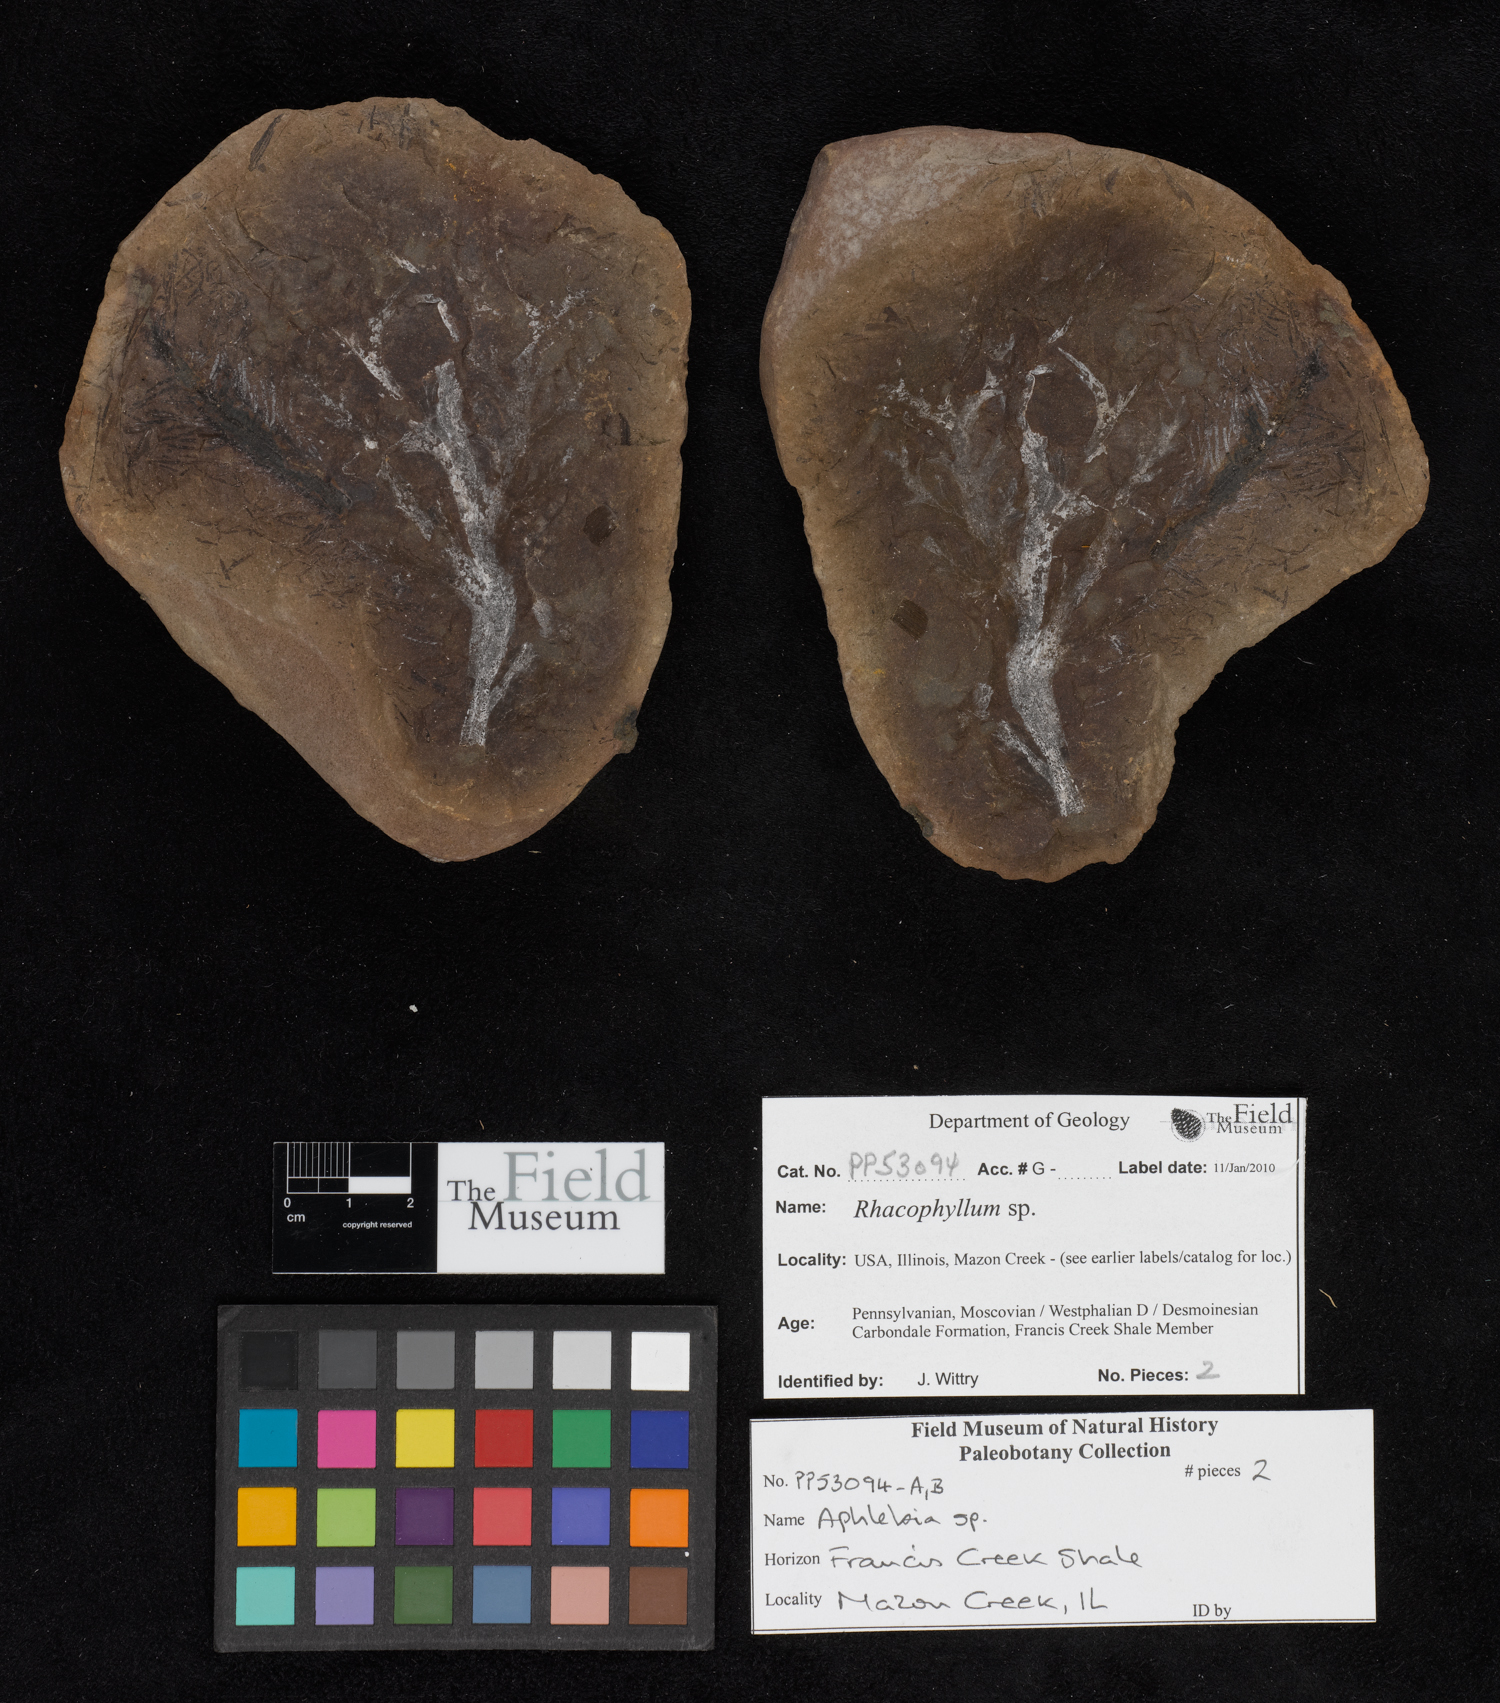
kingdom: Plantae
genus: Rhacophyllum
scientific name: Rhacophyllum
